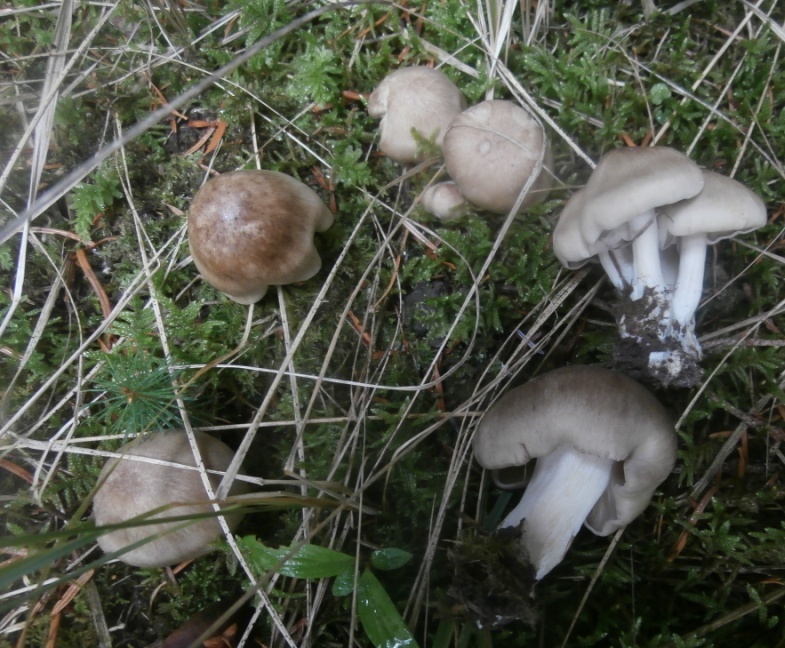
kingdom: Fungi
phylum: Basidiomycota
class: Agaricomycetes
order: Agaricales
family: Lyophyllaceae
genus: Lyophyllum
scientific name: Lyophyllum
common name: gråblad
